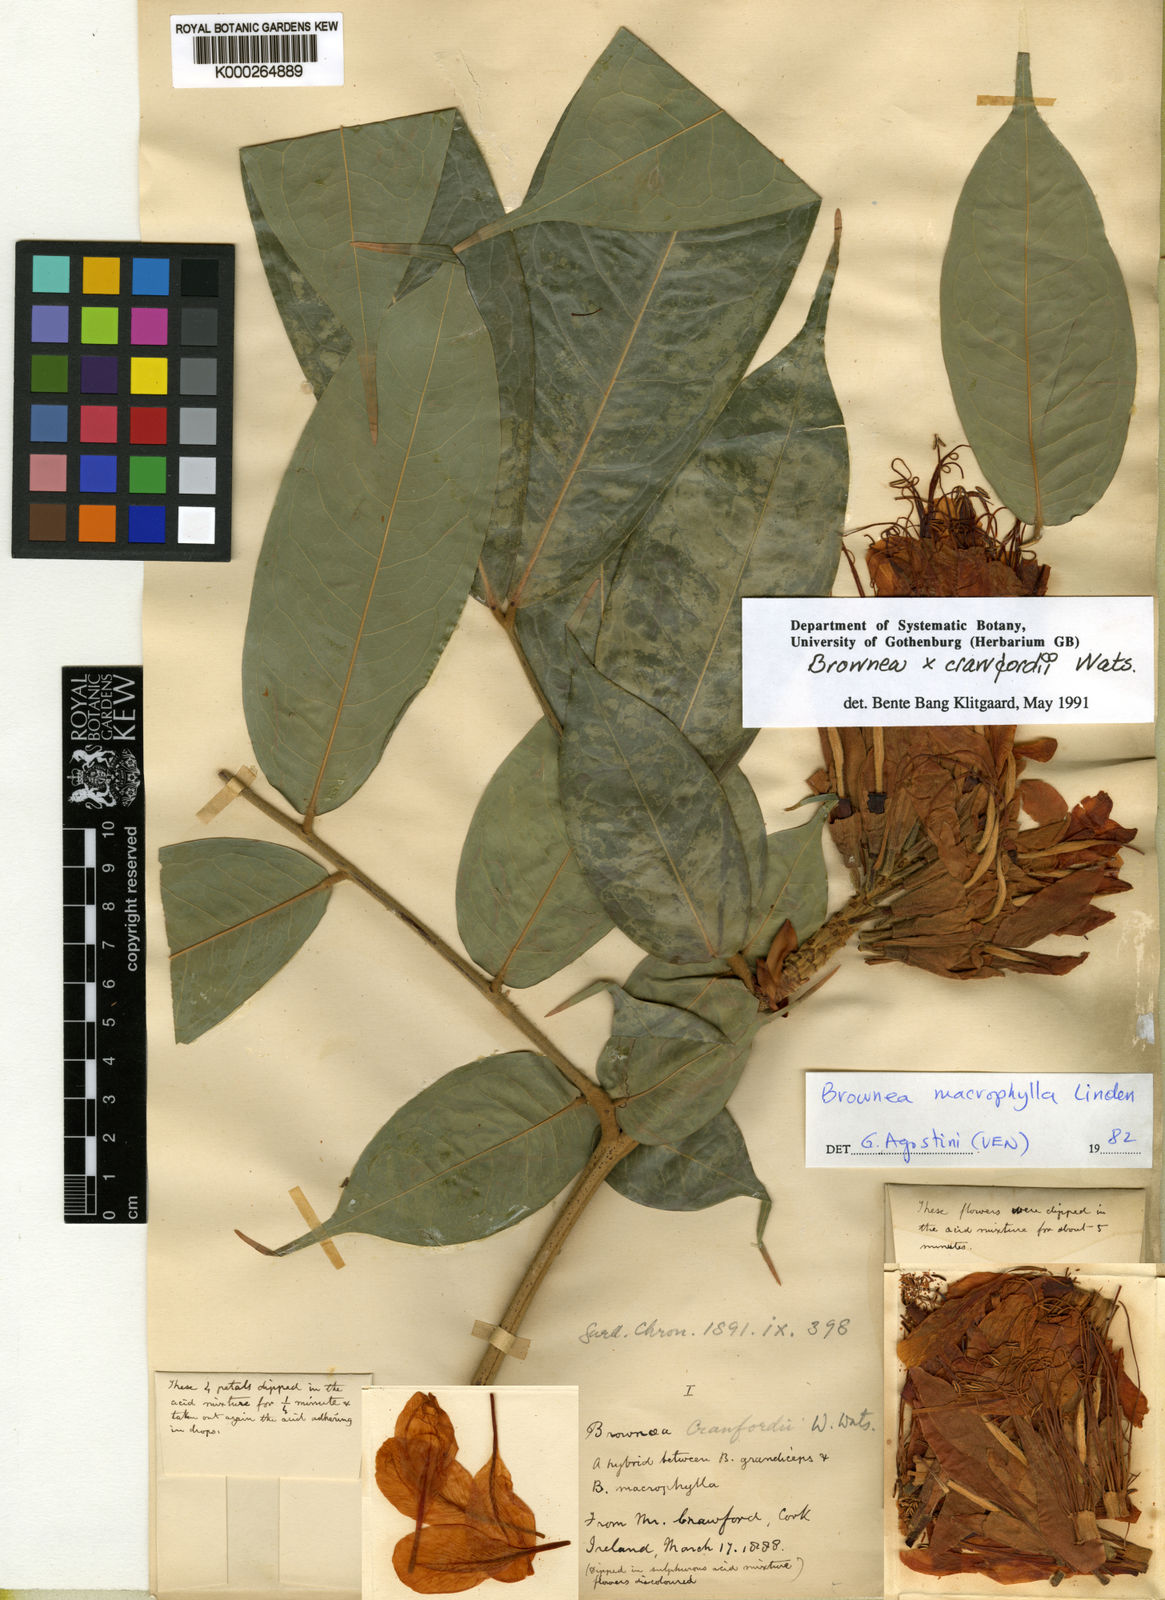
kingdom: Plantae
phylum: Tracheophyta
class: Magnoliopsida
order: Fabales
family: Fabaceae
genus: Brownea
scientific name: Brownea
